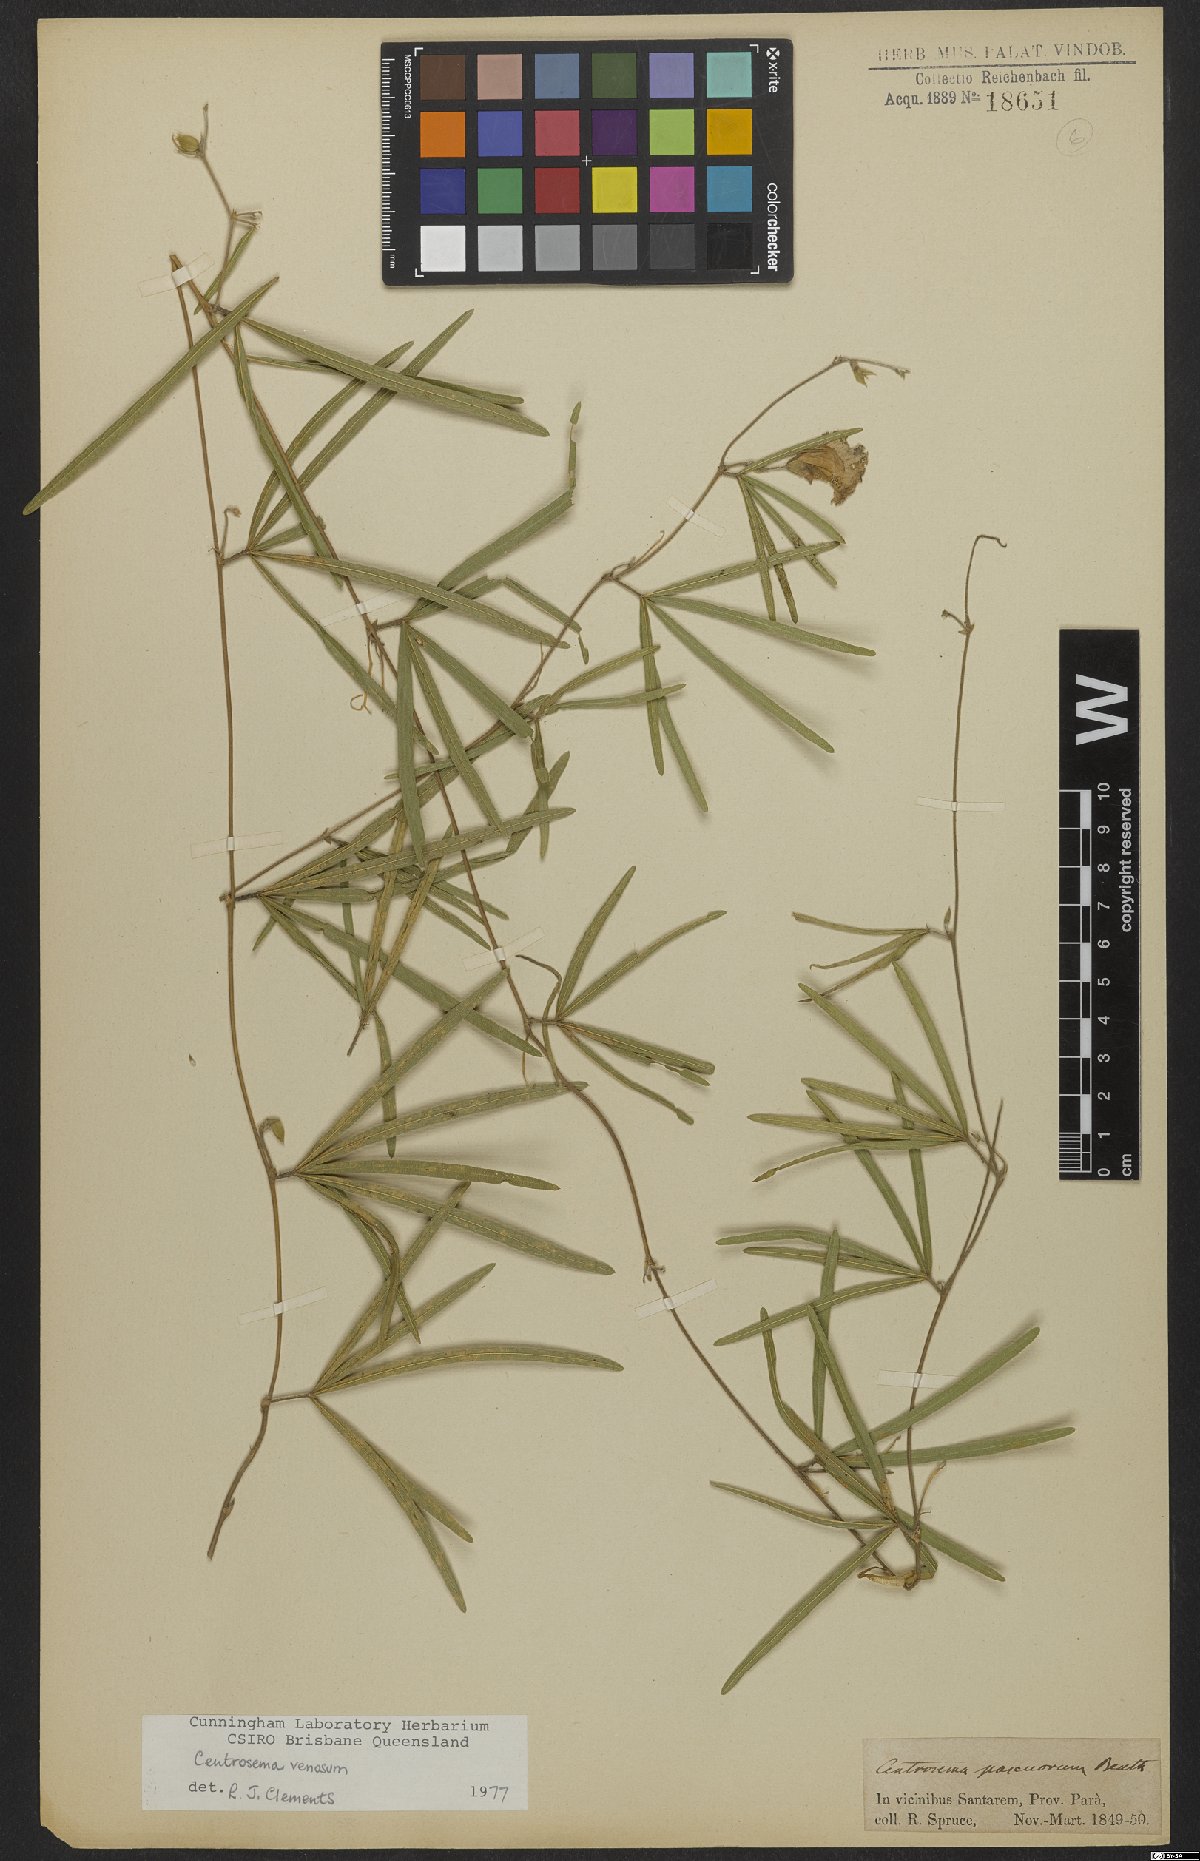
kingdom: Plantae
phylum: Tracheophyta
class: Magnoliopsida
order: Fabales
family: Fabaceae
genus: Centrosema
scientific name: Centrosema venosum
